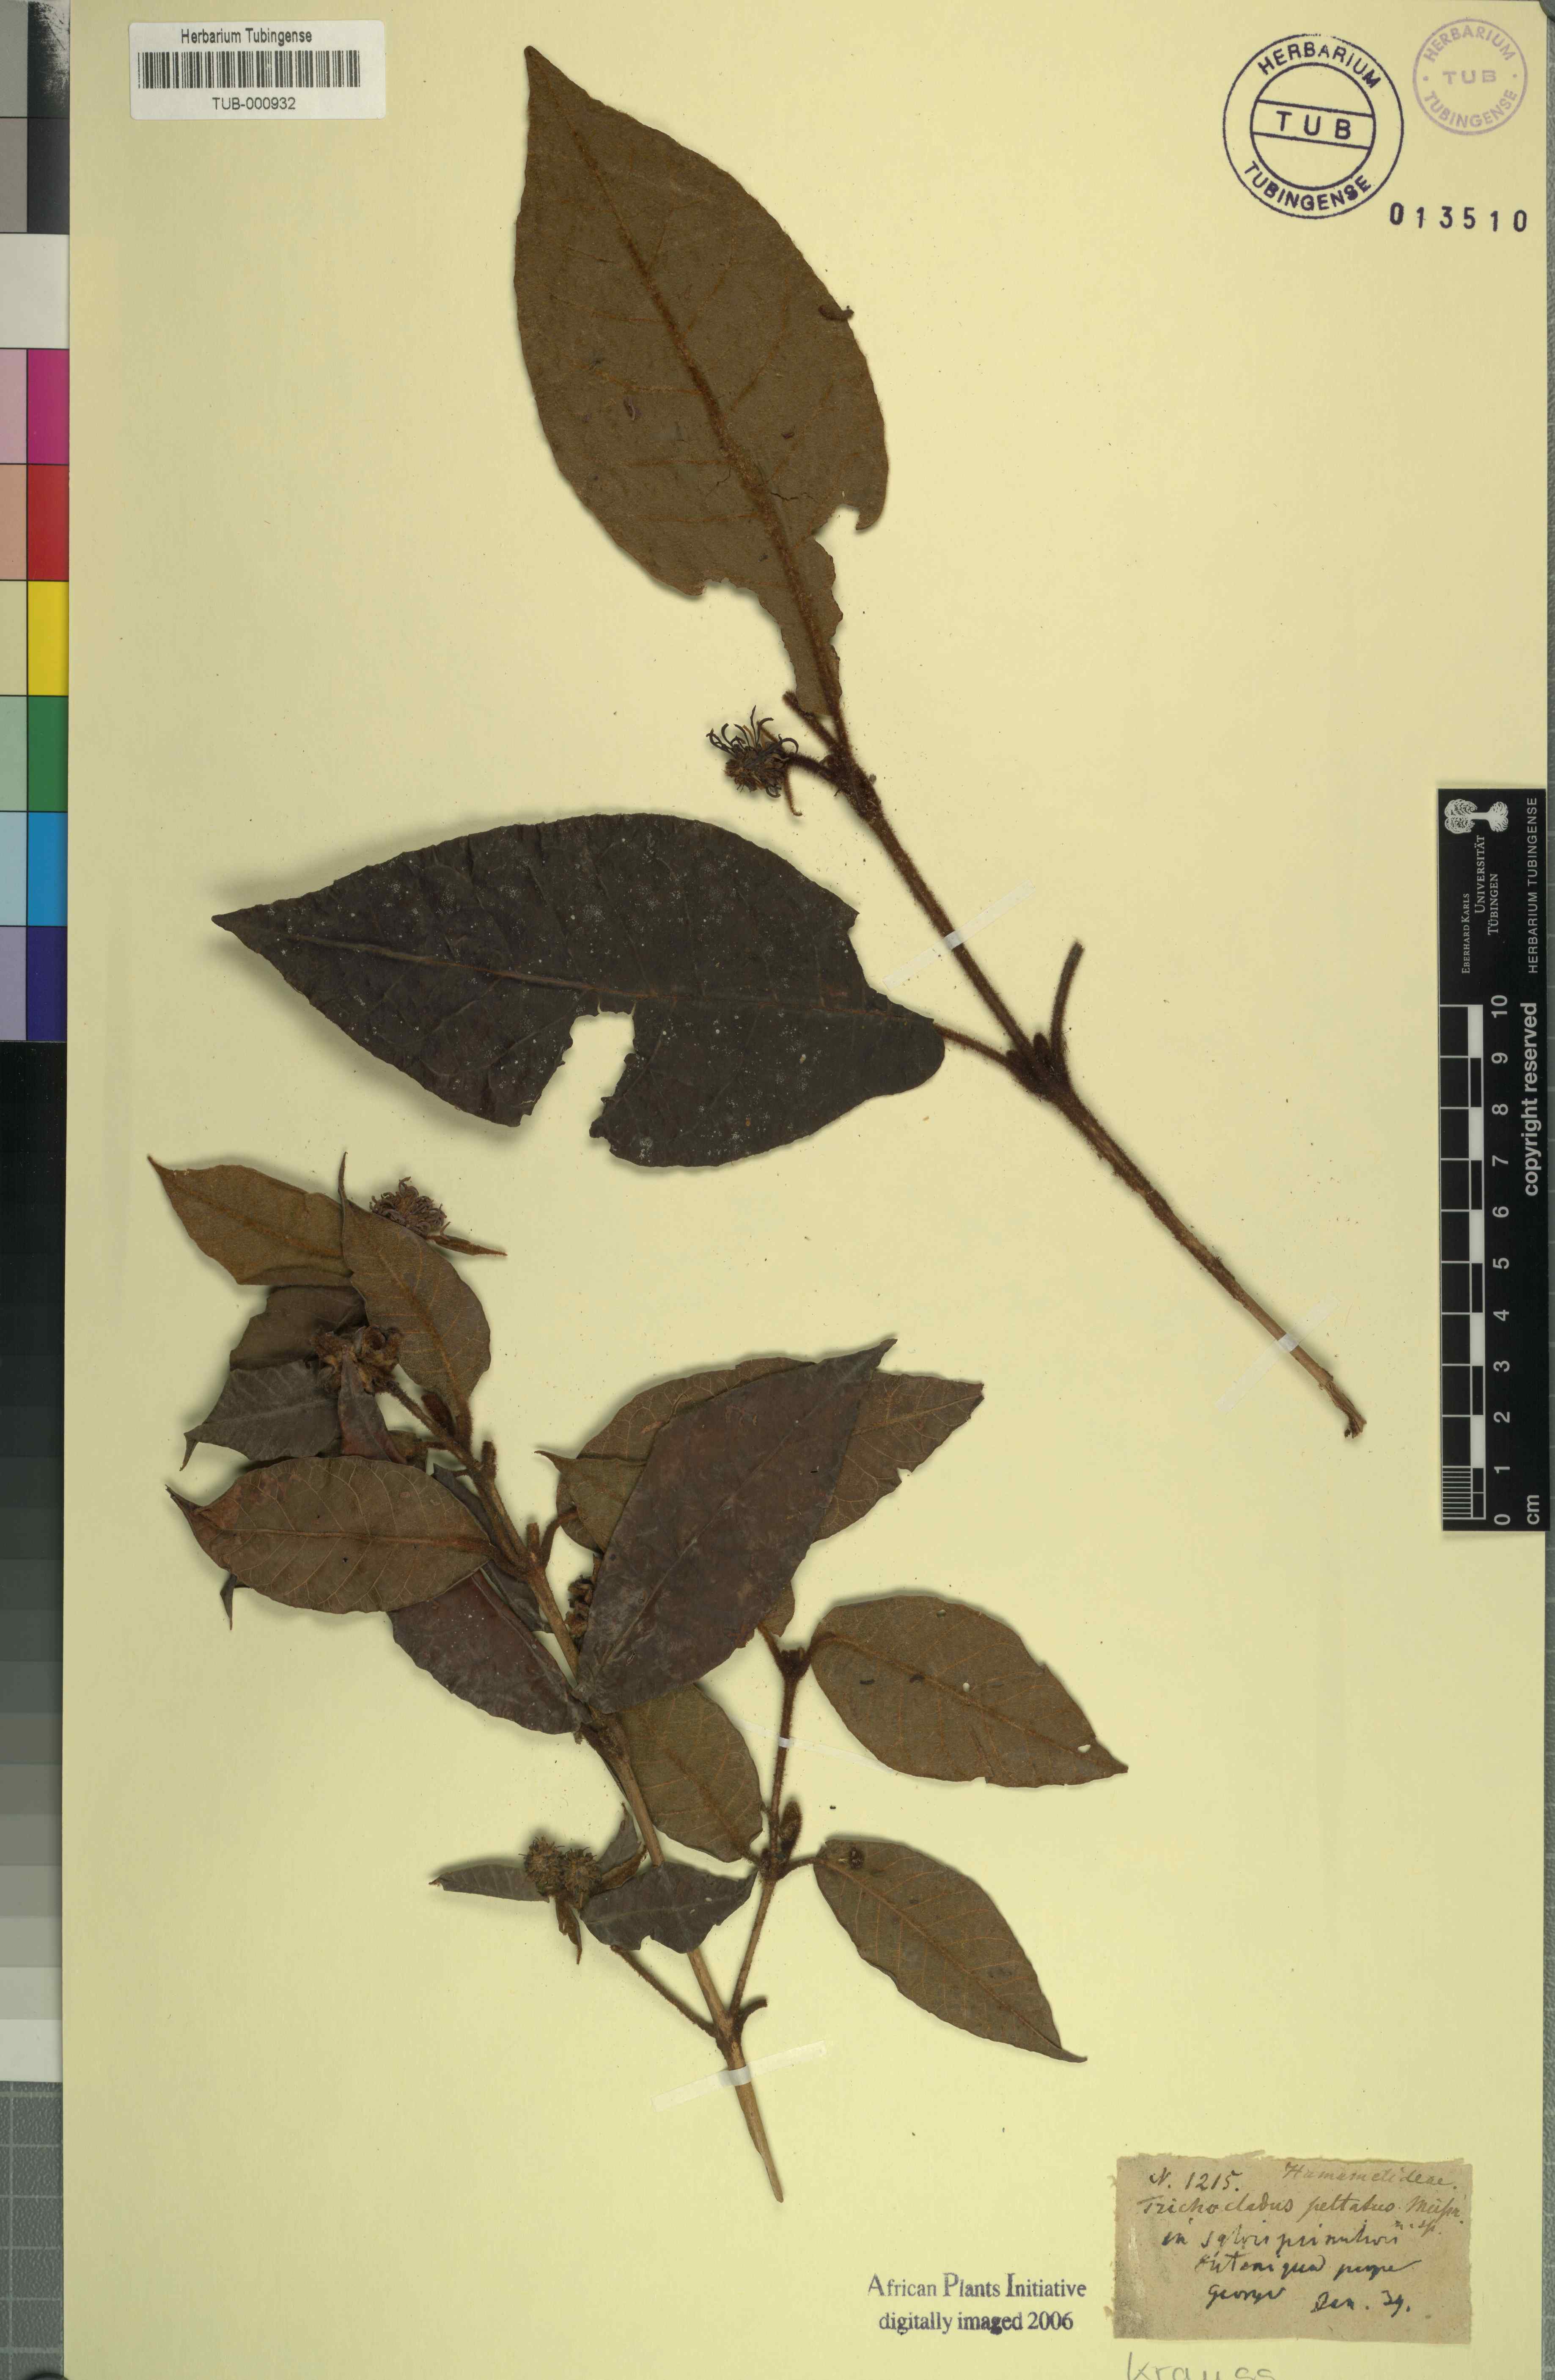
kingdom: Plantae
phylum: Tracheophyta
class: Magnoliopsida
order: Saxifragales
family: Hamamelidaceae
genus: Trichocladus
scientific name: Trichocladus crinitus
